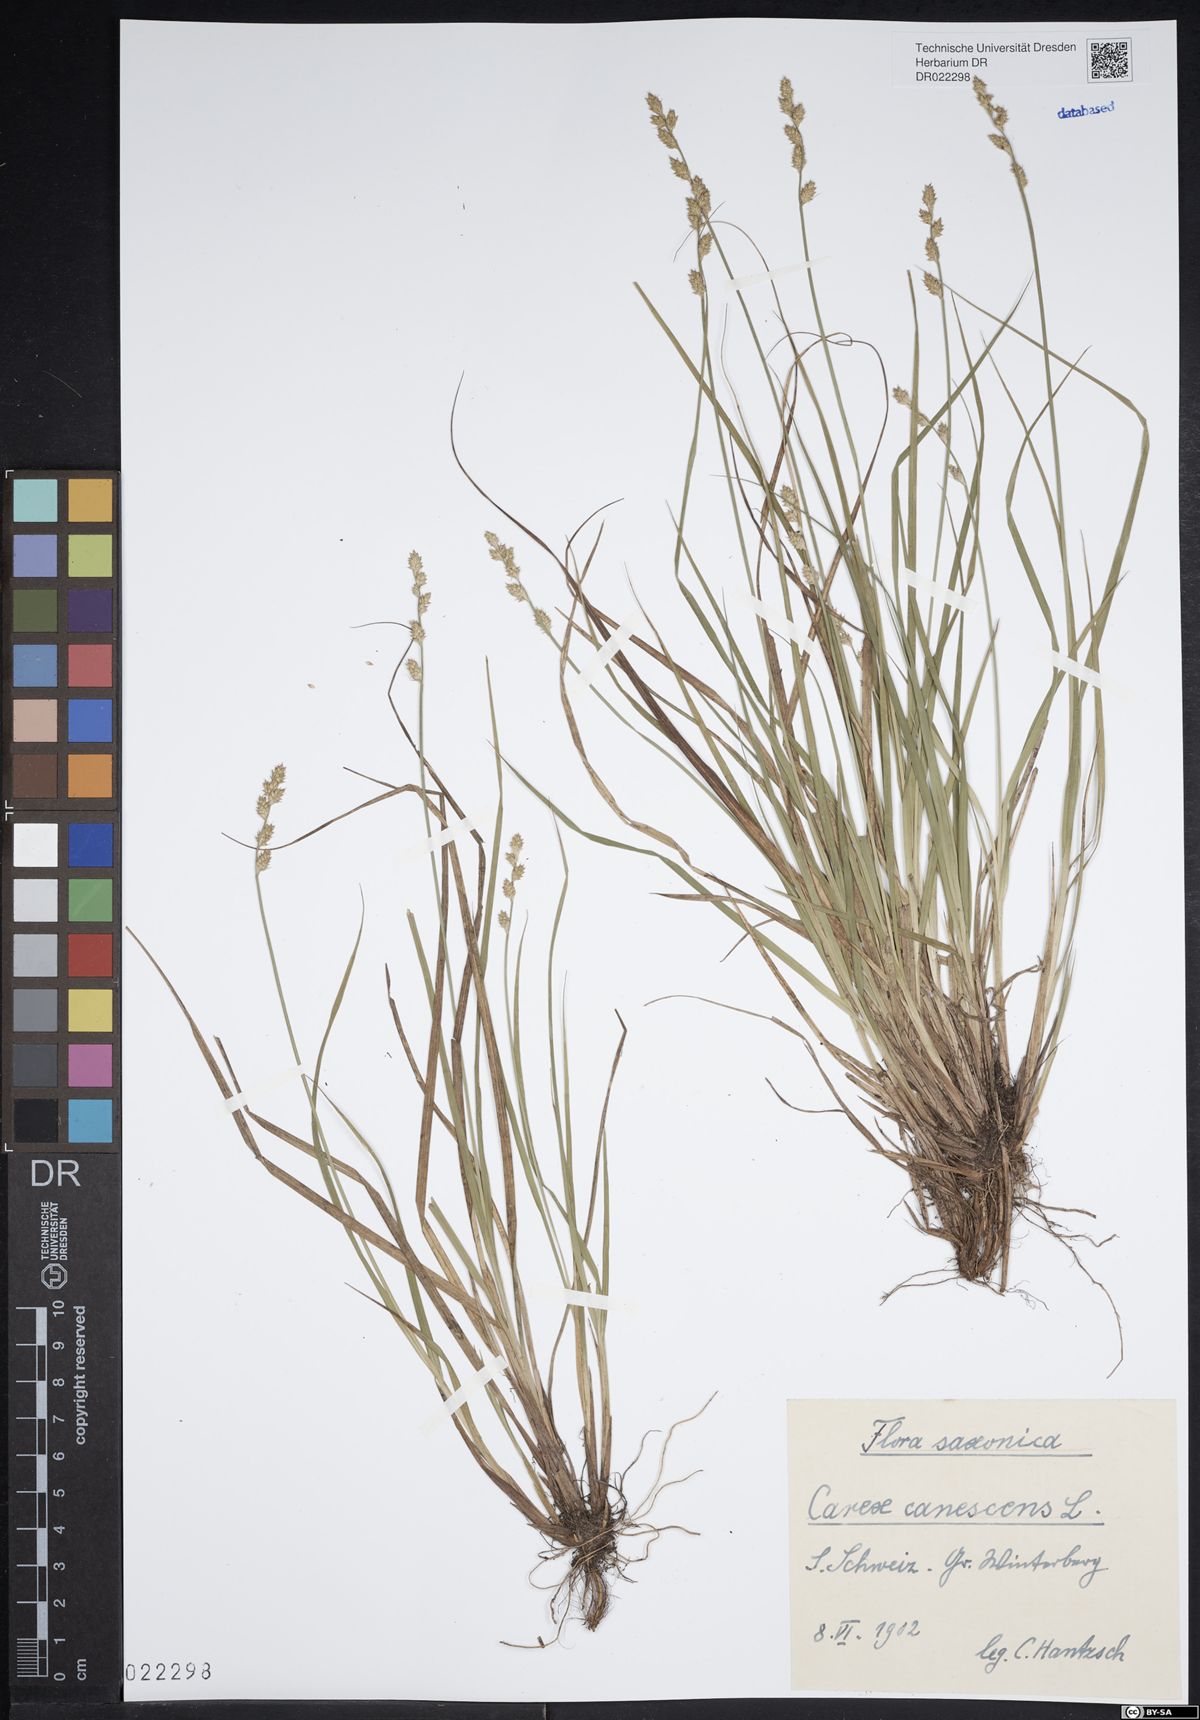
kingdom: Plantae
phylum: Tracheophyta
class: Liliopsida
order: Poales
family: Cyperaceae
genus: Carex
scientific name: Carex canescens
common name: White sedge
